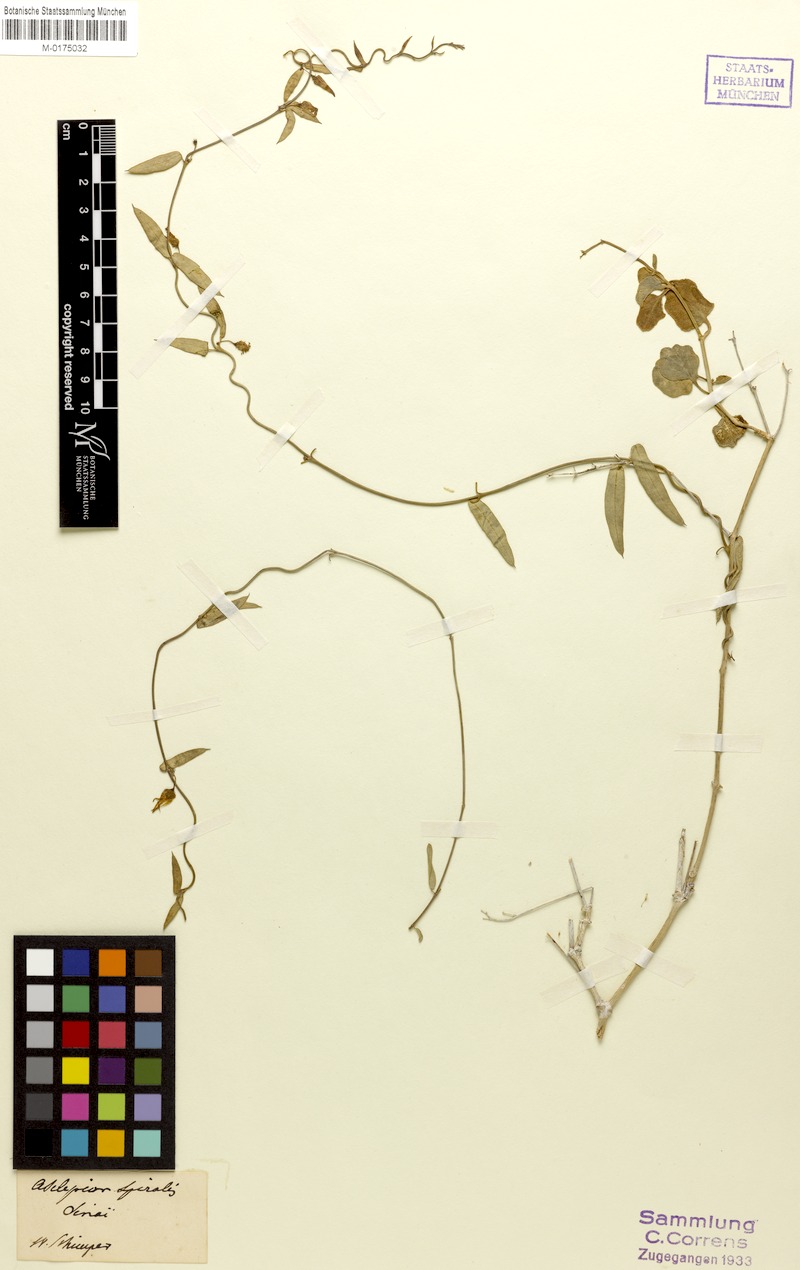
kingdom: Plantae
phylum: Tracheophyta
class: Magnoliopsida
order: Gentianales
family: Apocynaceae
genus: Vincetoxicum
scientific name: Vincetoxicum spirale
